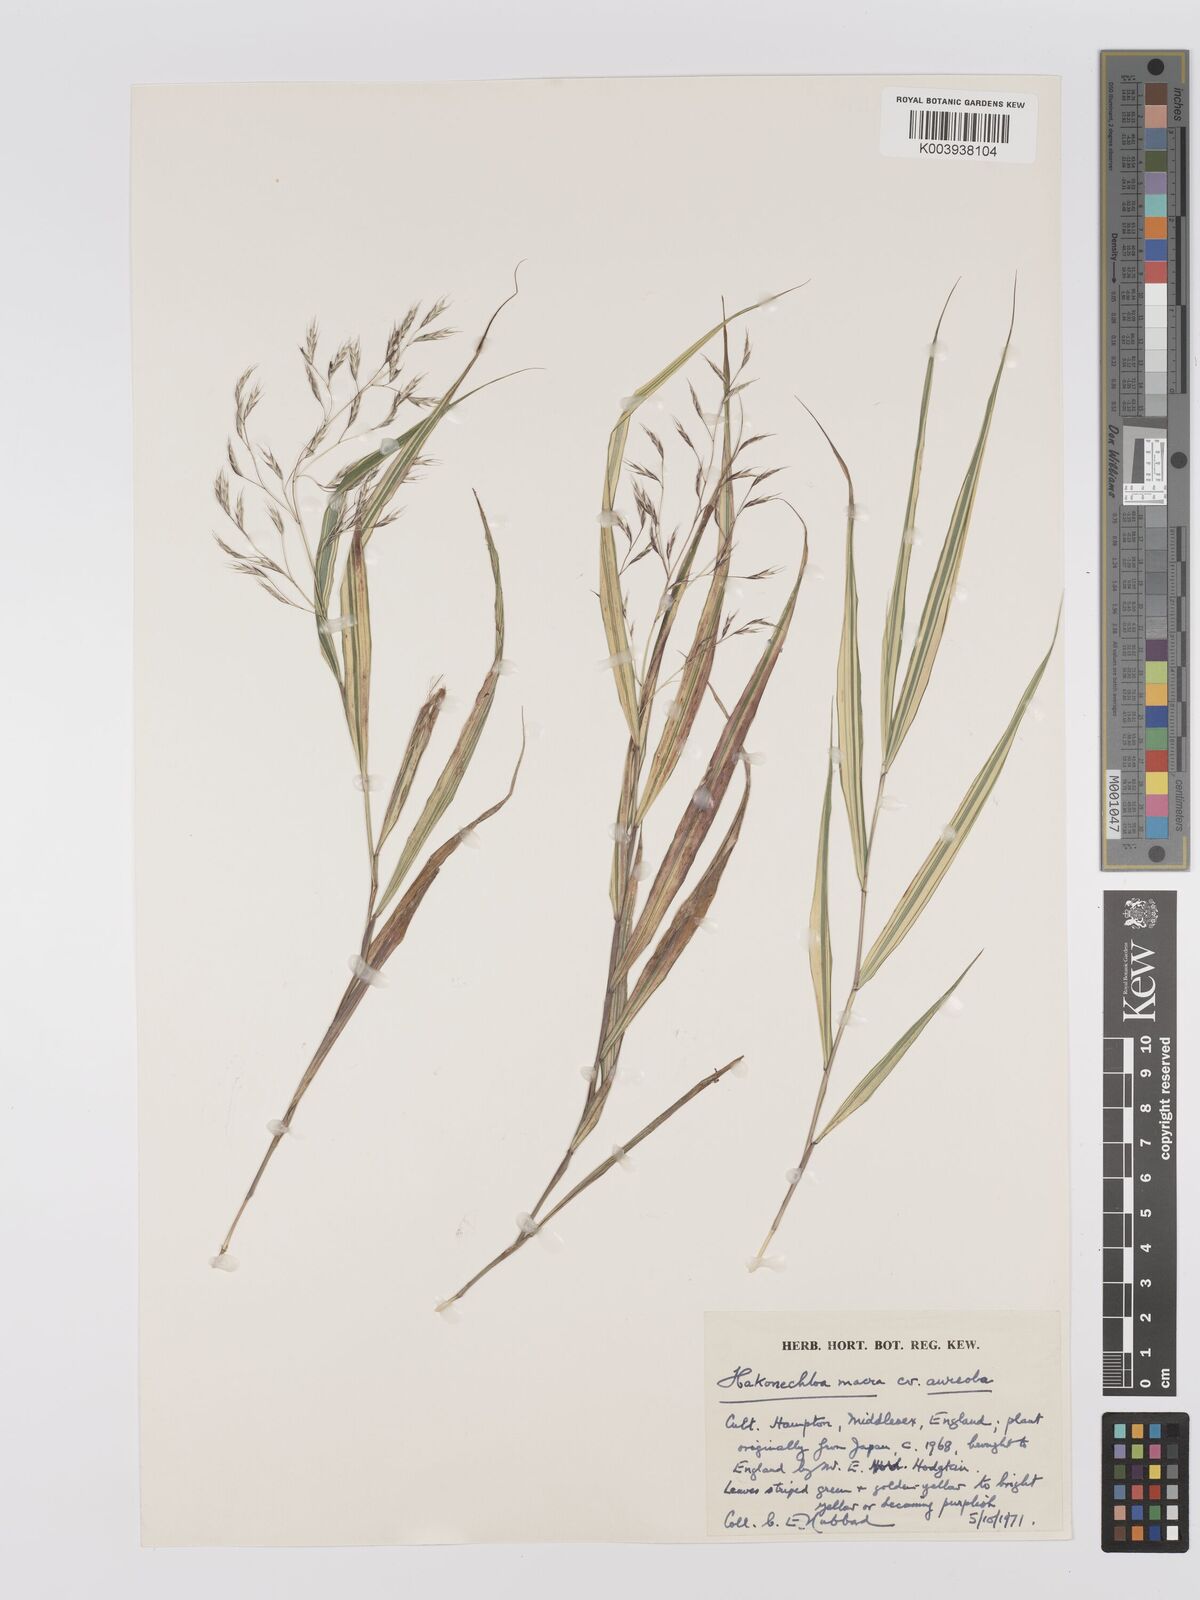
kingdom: Plantae
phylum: Tracheophyta
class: Liliopsida
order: Poales
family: Poaceae
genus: Hakonechloa
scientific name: Hakonechloa macra
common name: Hakone grass
